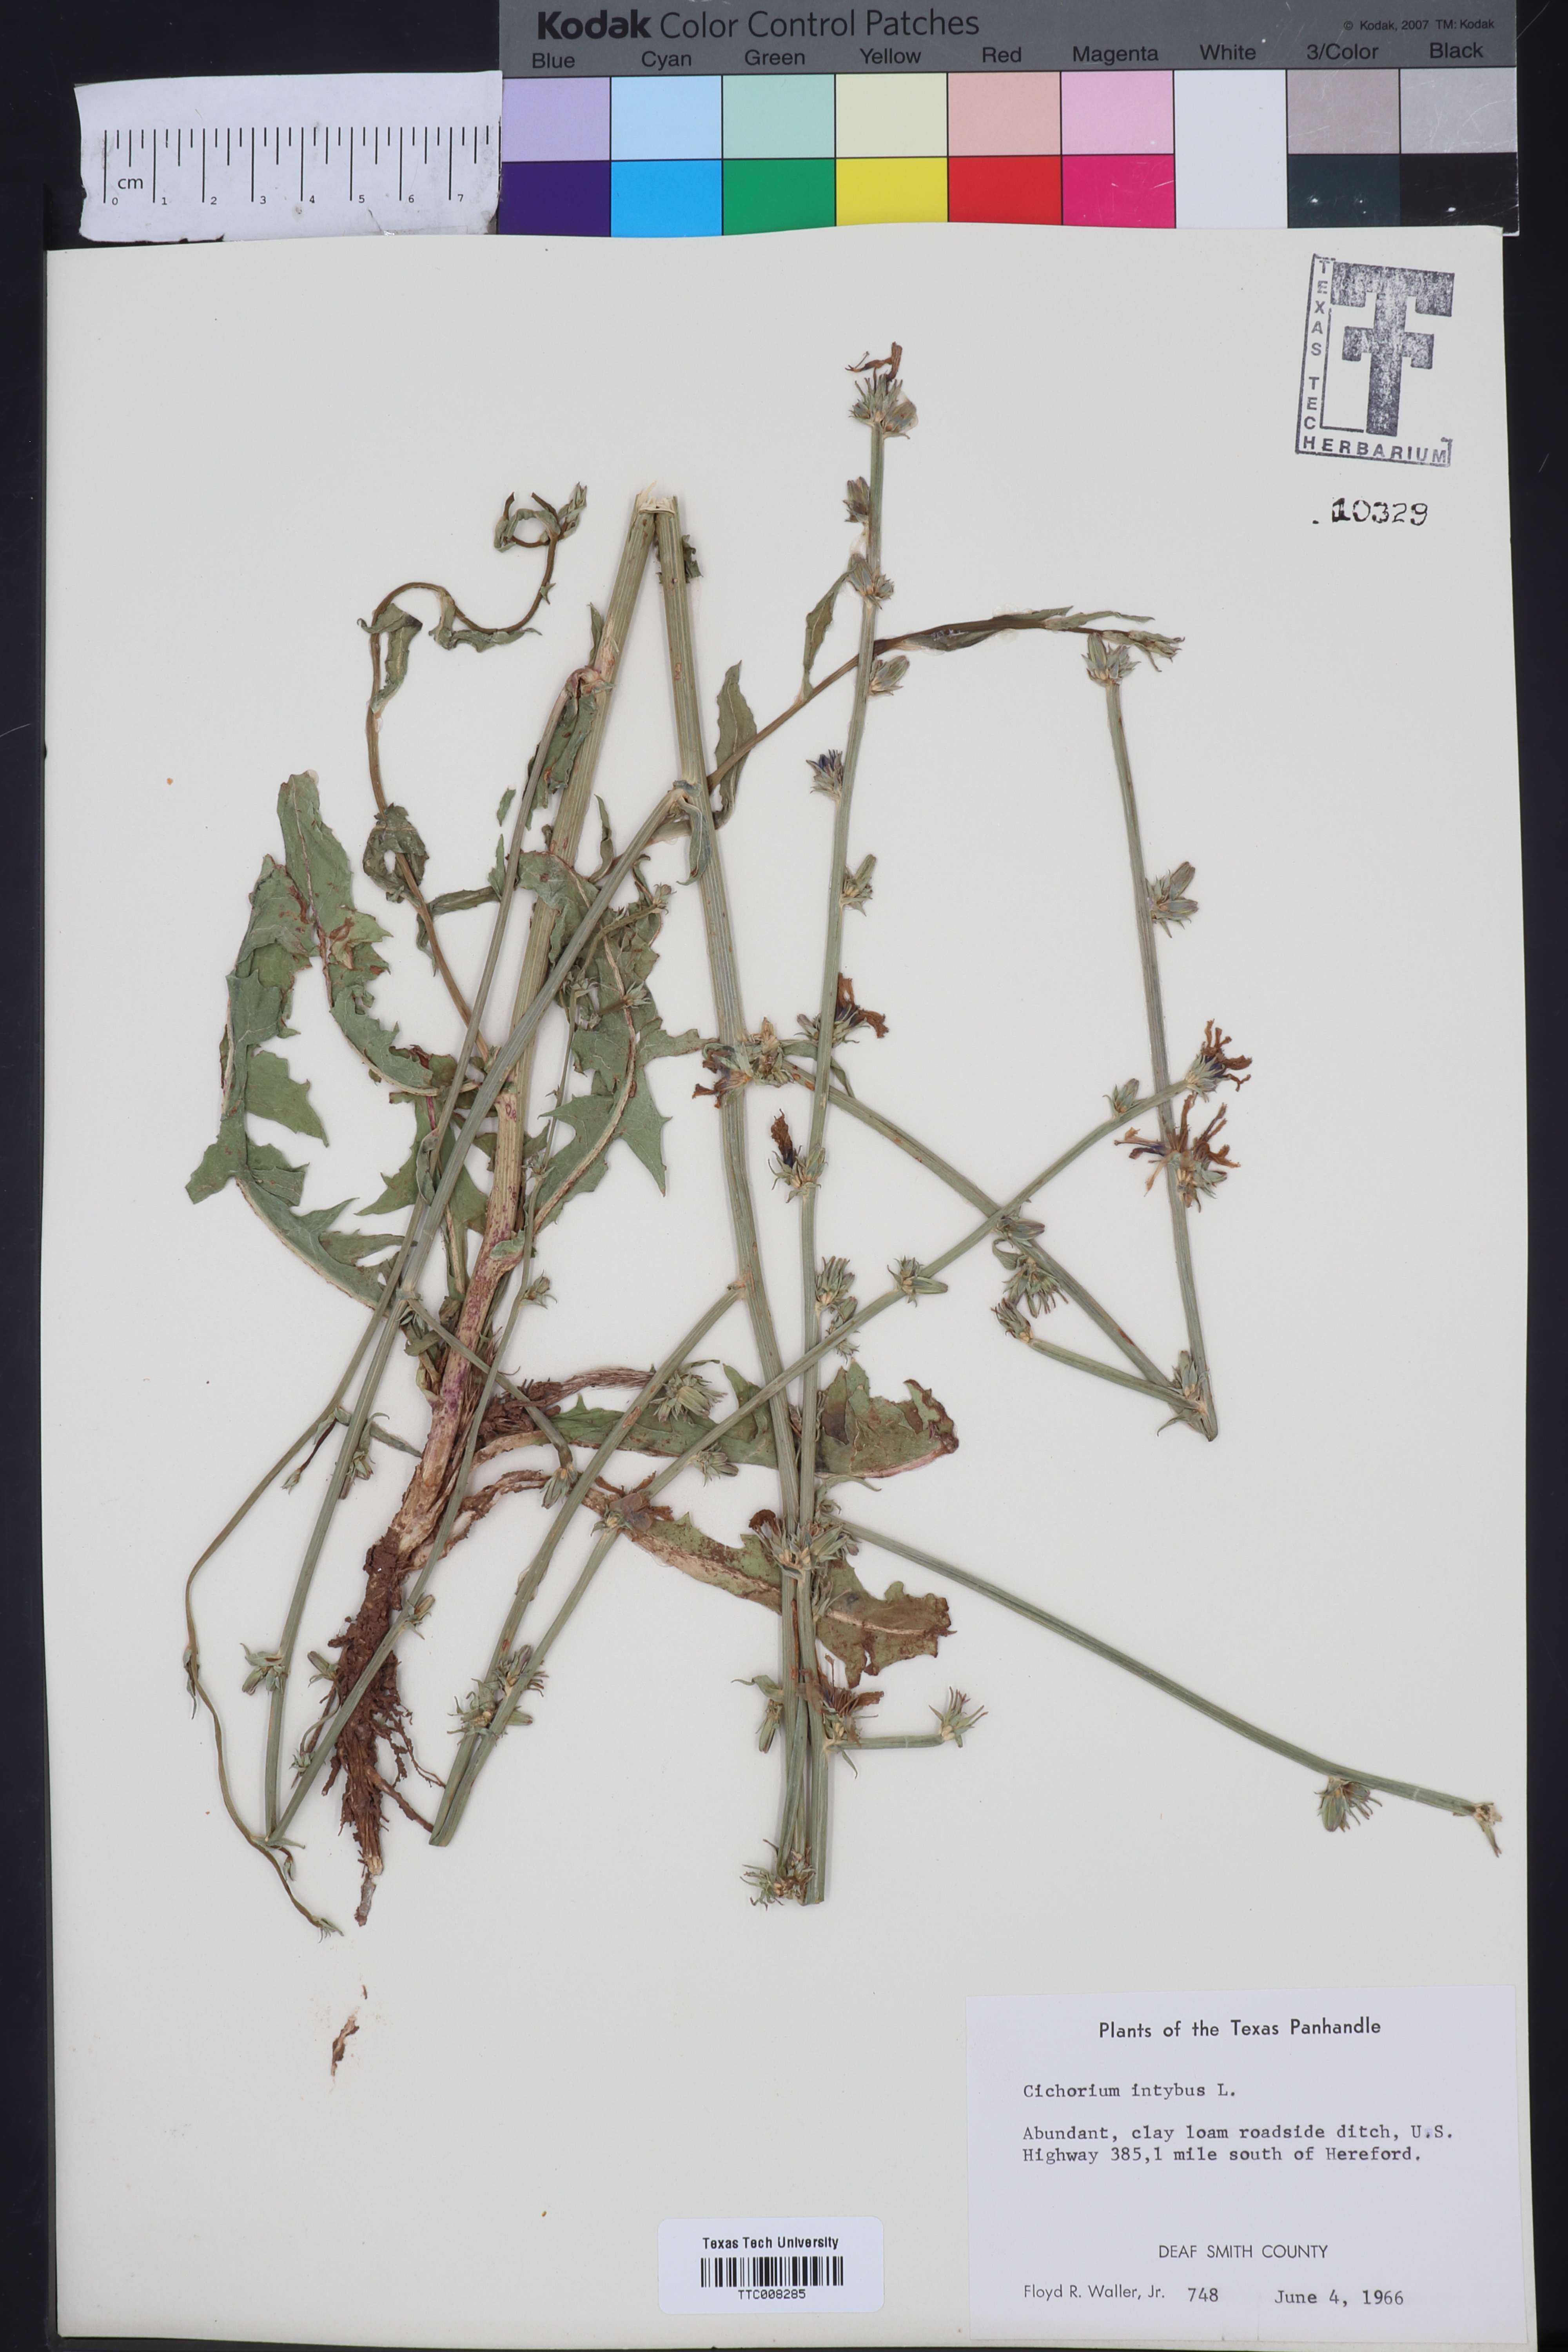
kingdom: Plantae
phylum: Tracheophyta
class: Magnoliopsida
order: Asterales
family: Asteraceae
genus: Cichorium
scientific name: Cichorium intybus
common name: Chicory
